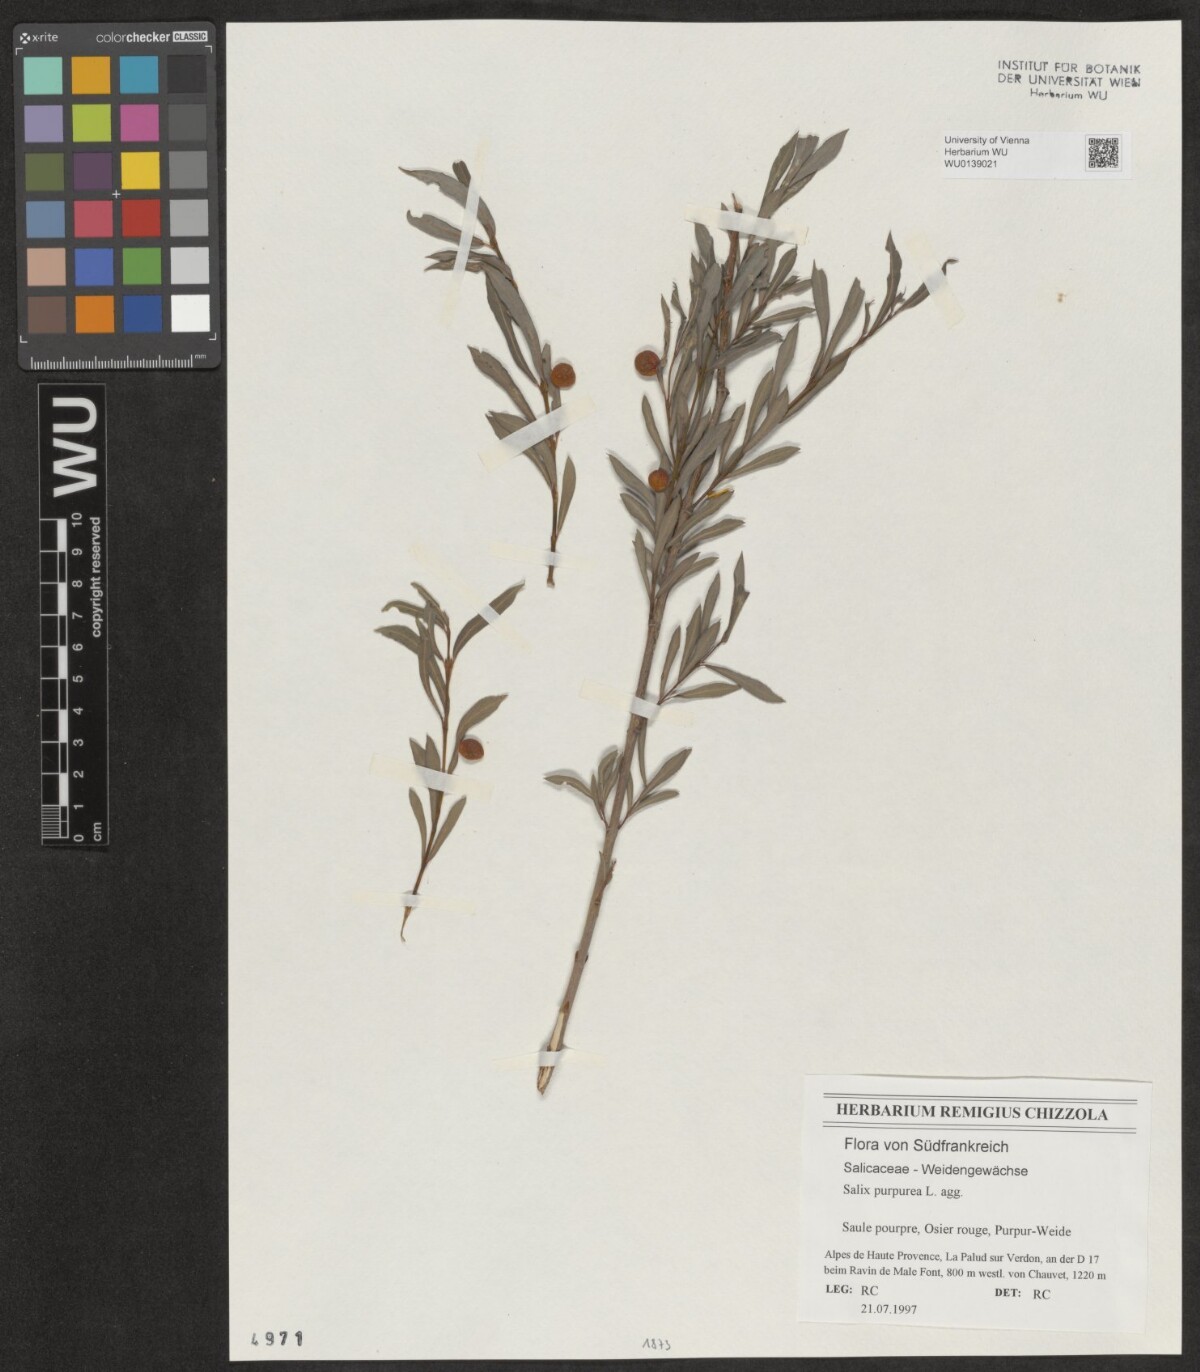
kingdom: Plantae
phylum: Tracheophyta
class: Magnoliopsida
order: Malpighiales
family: Salicaceae
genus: Salix
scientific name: Salix purpurea
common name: Purple willow
